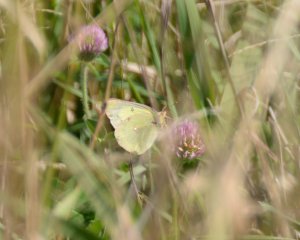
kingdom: Animalia
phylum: Arthropoda
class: Insecta
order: Lepidoptera
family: Pieridae
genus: Colias
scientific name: Colias philodice
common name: Clouded Sulphur
